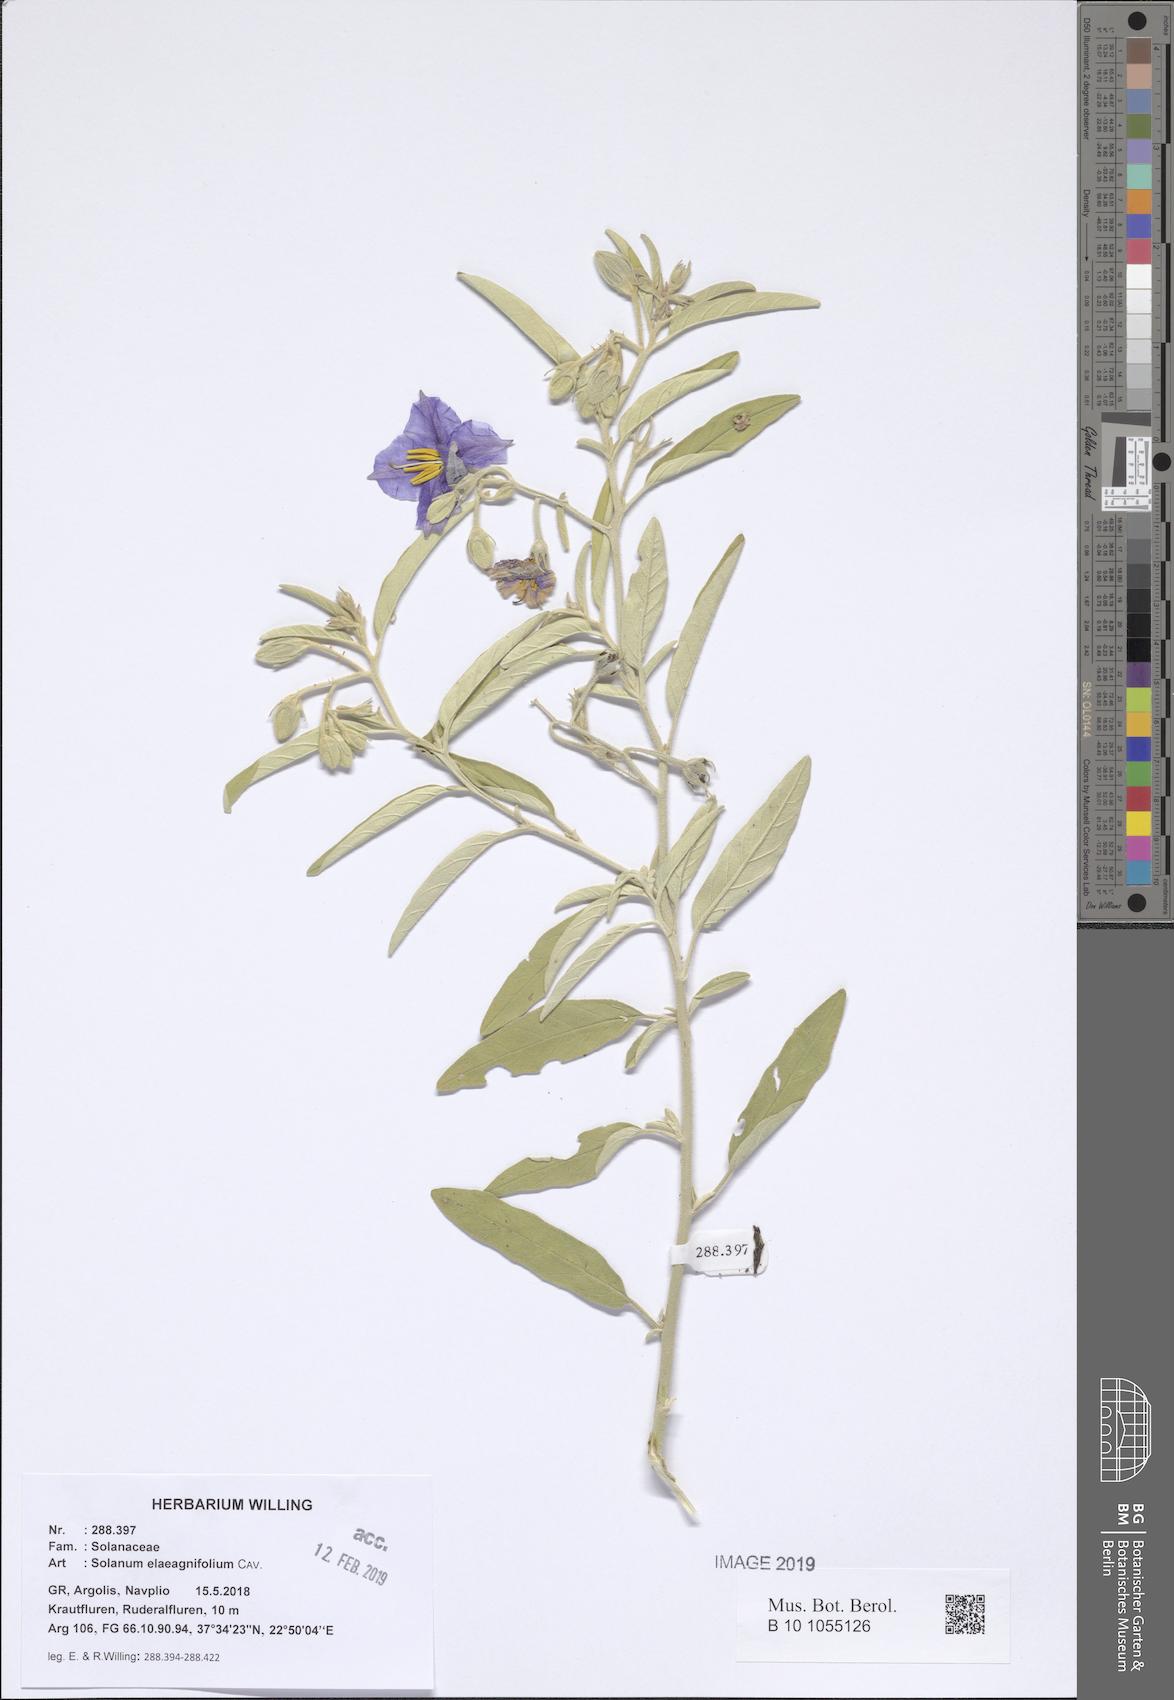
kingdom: Plantae
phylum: Tracheophyta
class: Magnoliopsida
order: Solanales
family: Solanaceae
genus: Solanum
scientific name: Solanum elaeagnifolium
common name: Silverleaf nightshade
